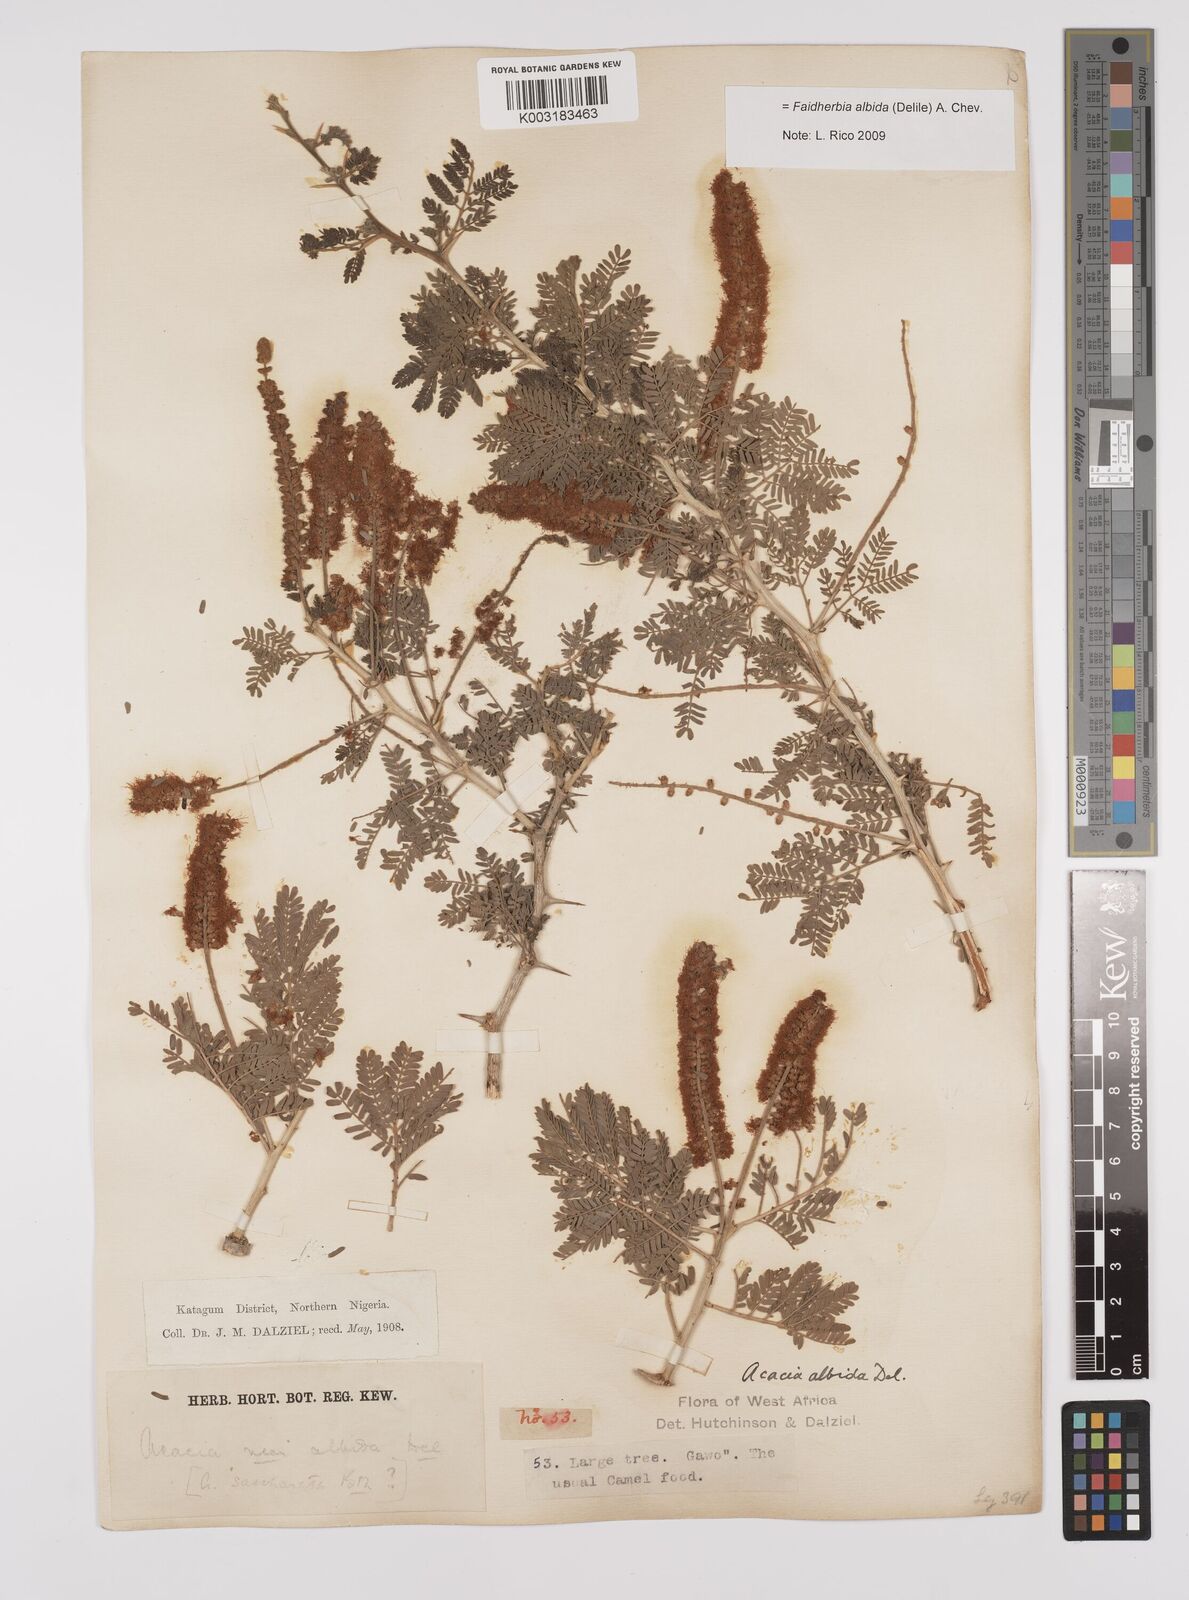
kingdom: Plantae
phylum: Tracheophyta
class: Magnoliopsida
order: Fabales
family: Fabaceae
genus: Faidherbia
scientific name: Faidherbia albida
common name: Anatree
